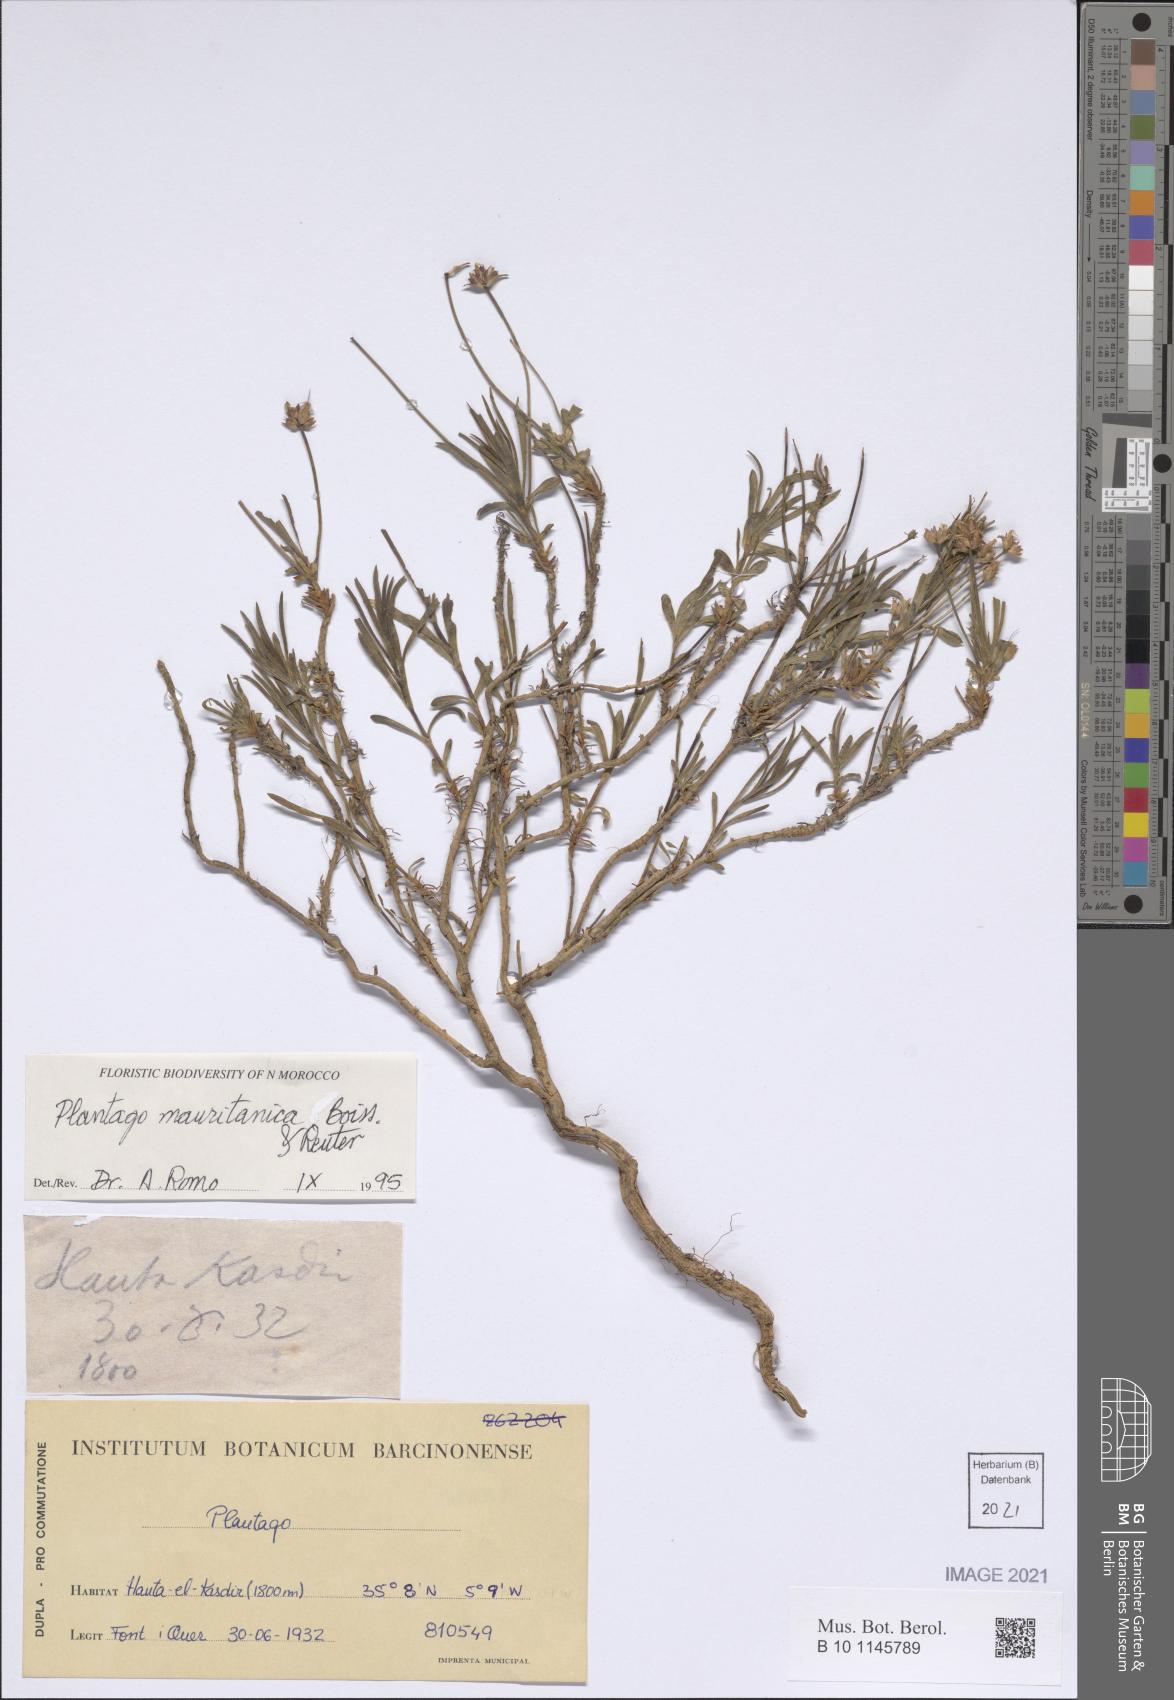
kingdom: Plantae
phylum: Tracheophyta
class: Magnoliopsida
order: Lamiales
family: Plantaginaceae
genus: Plantago
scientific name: Plantago mauritanica
